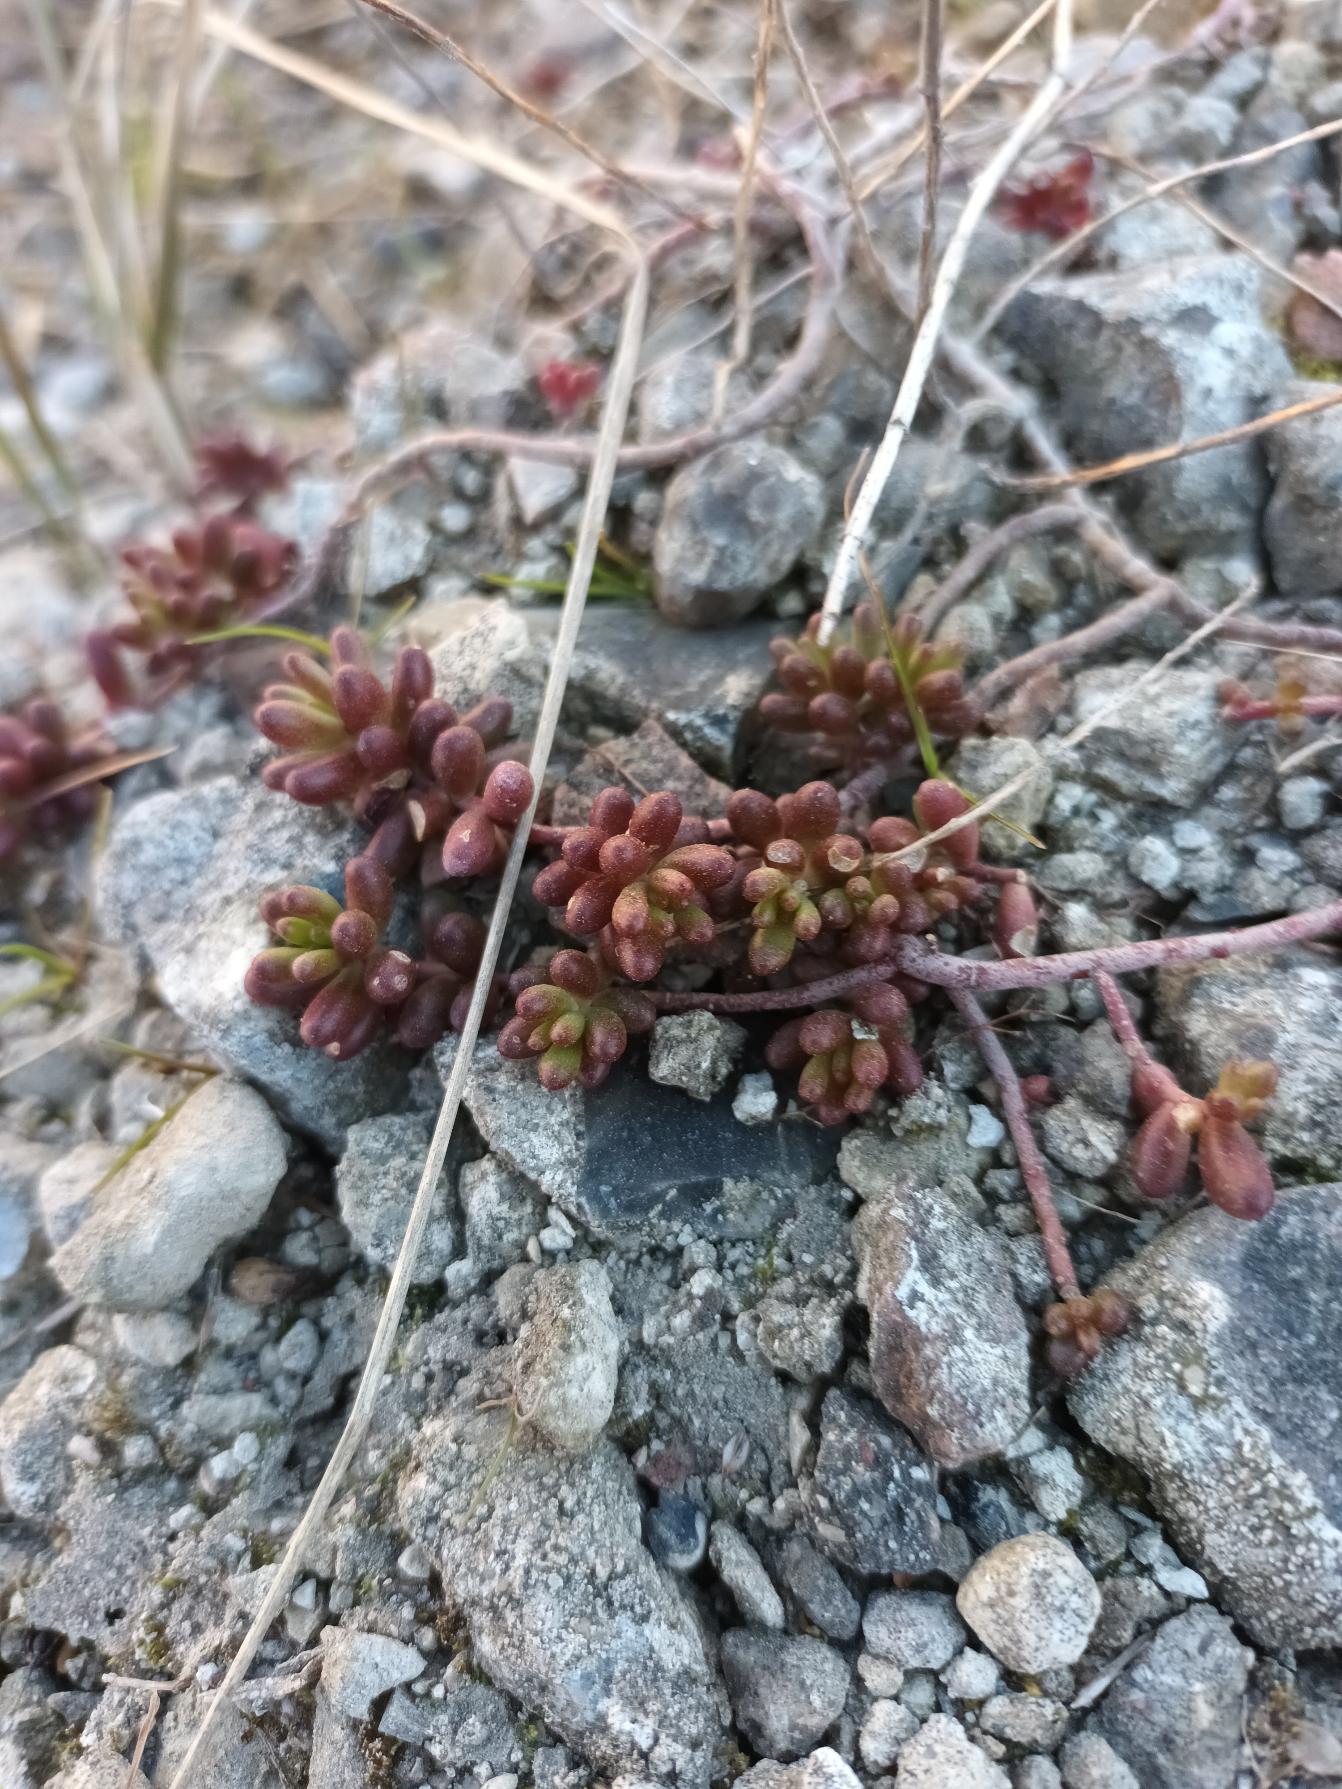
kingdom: Plantae
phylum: Tracheophyta
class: Magnoliopsida
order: Saxifragales
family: Crassulaceae
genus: Sedum
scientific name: Sedum album
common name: Hvid stenurt
